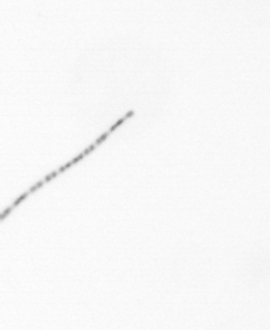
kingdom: Chromista
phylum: Ochrophyta
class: Bacillariophyceae
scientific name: Bacillariophyceae
